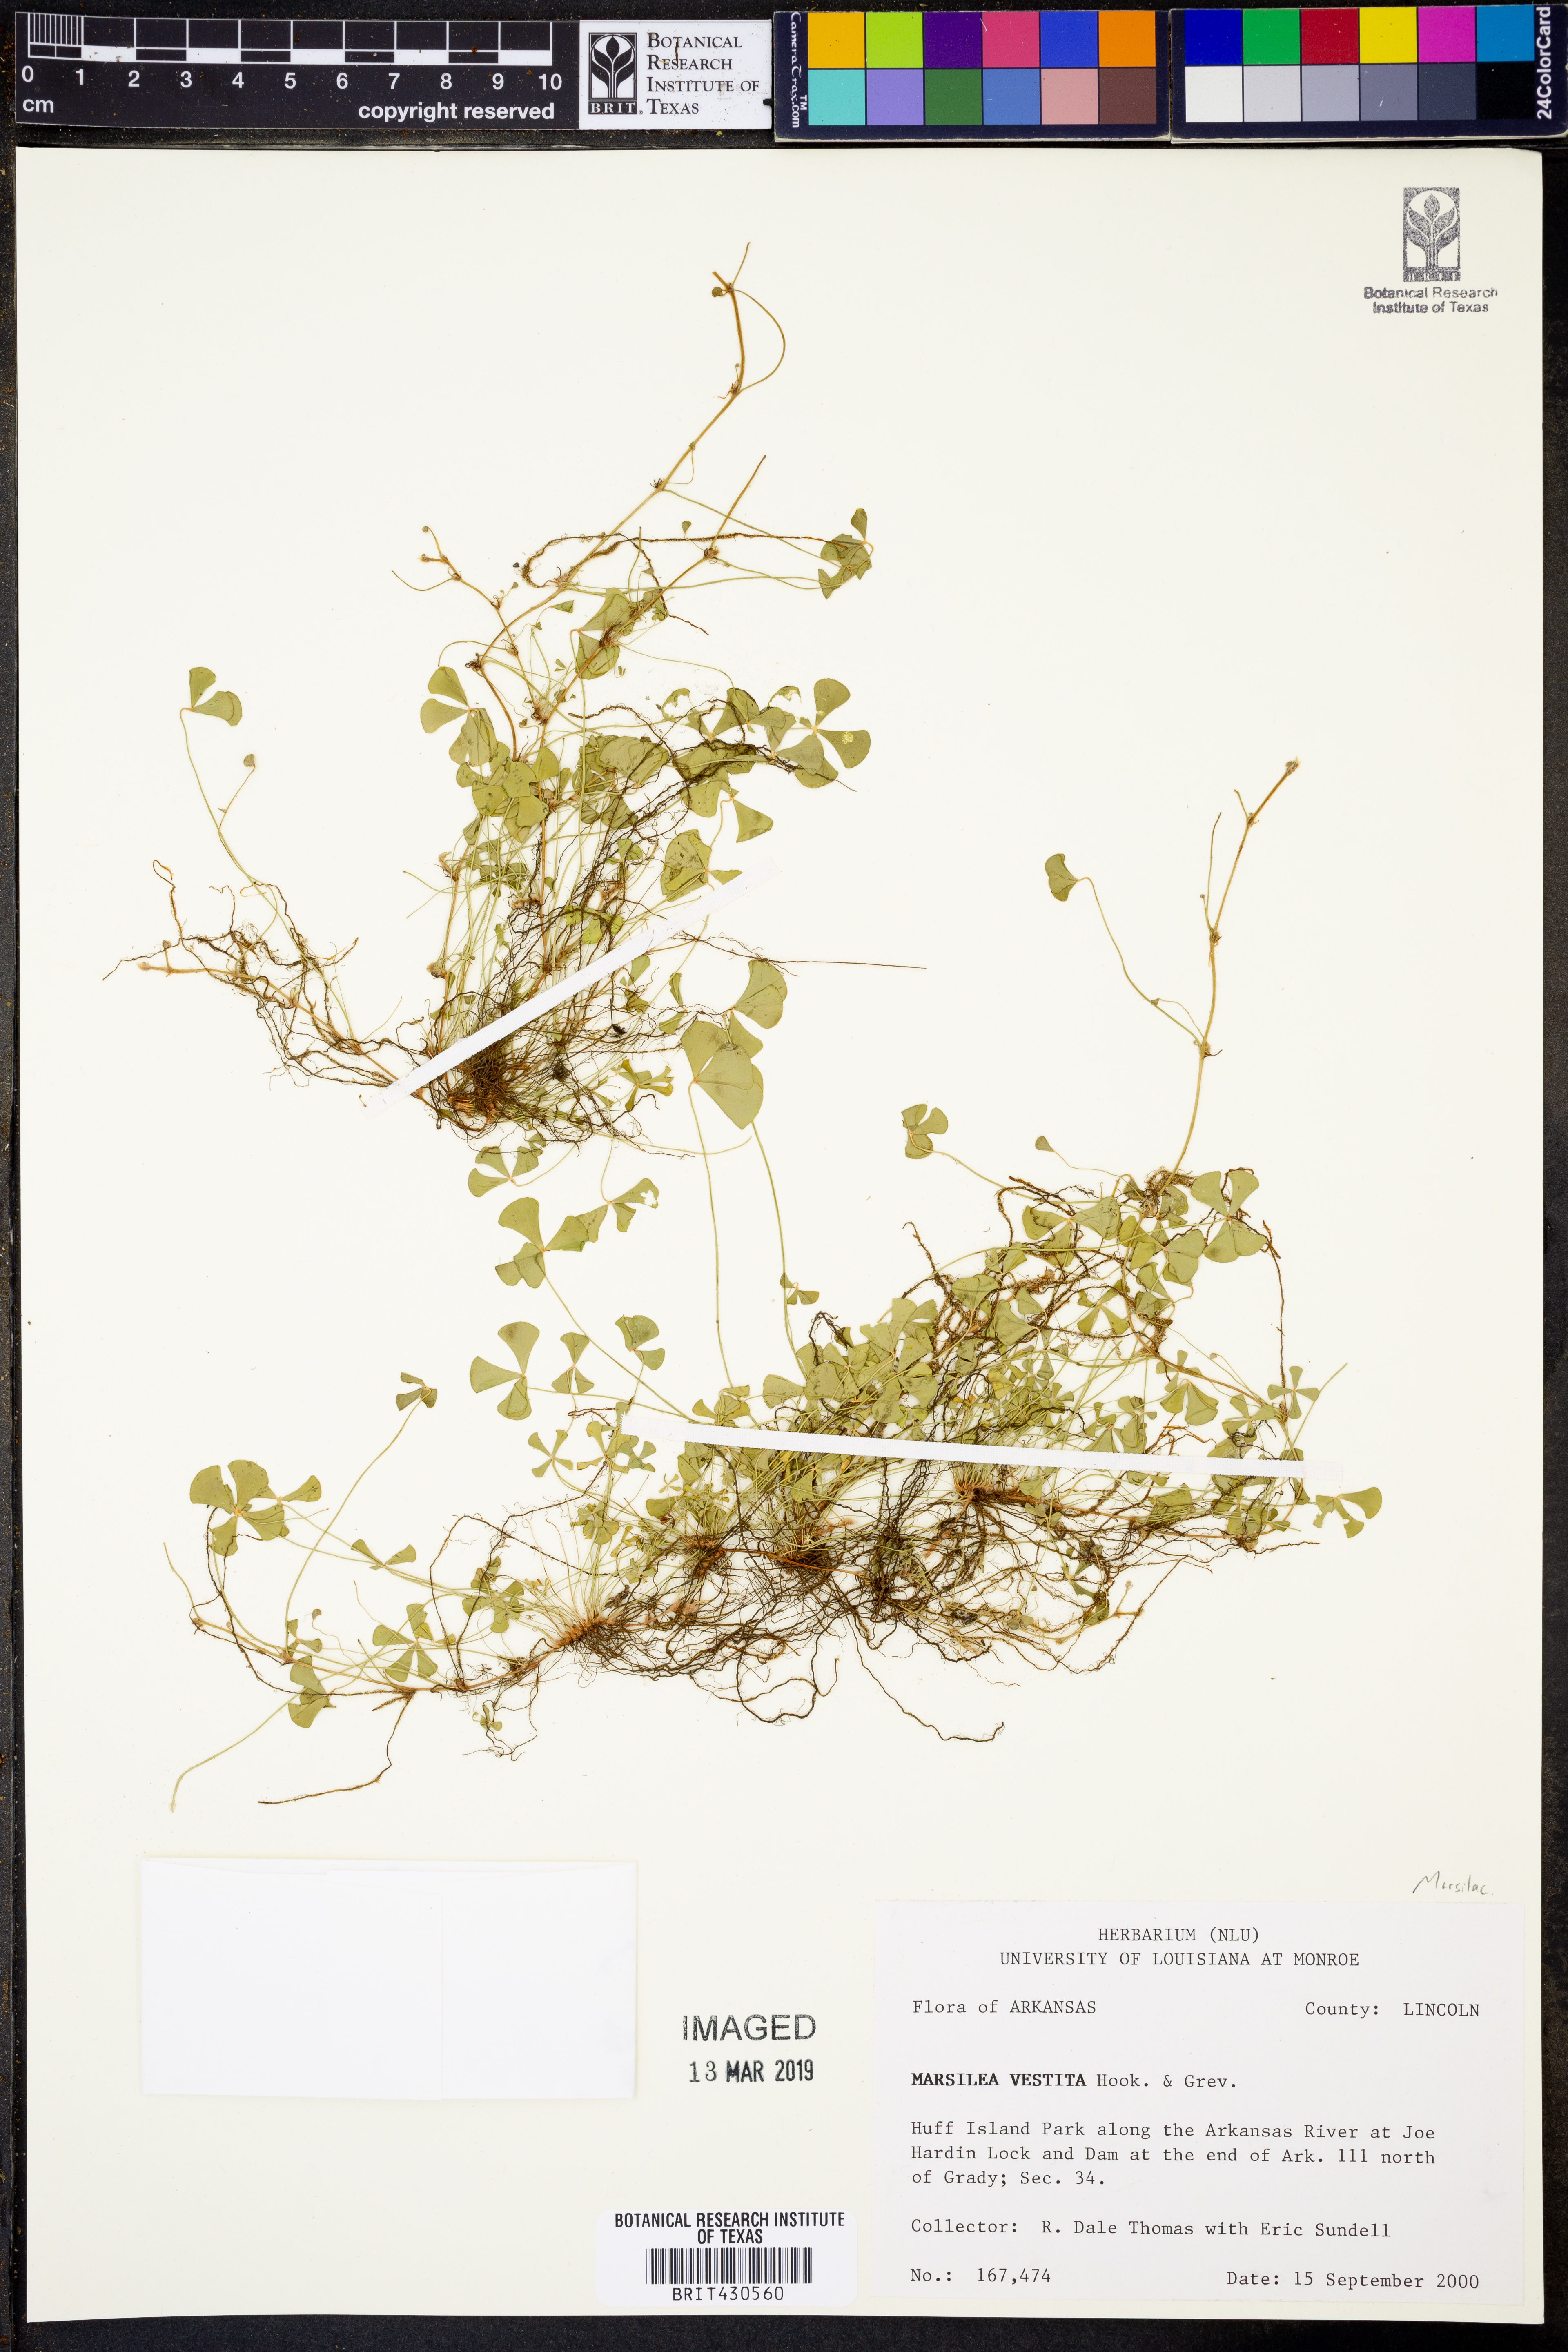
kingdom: Plantae
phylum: Tracheophyta
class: Polypodiopsida
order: Salviniales
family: Marsileaceae
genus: Marsilea
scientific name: Marsilea vestita
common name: Hooked-pepperwort
